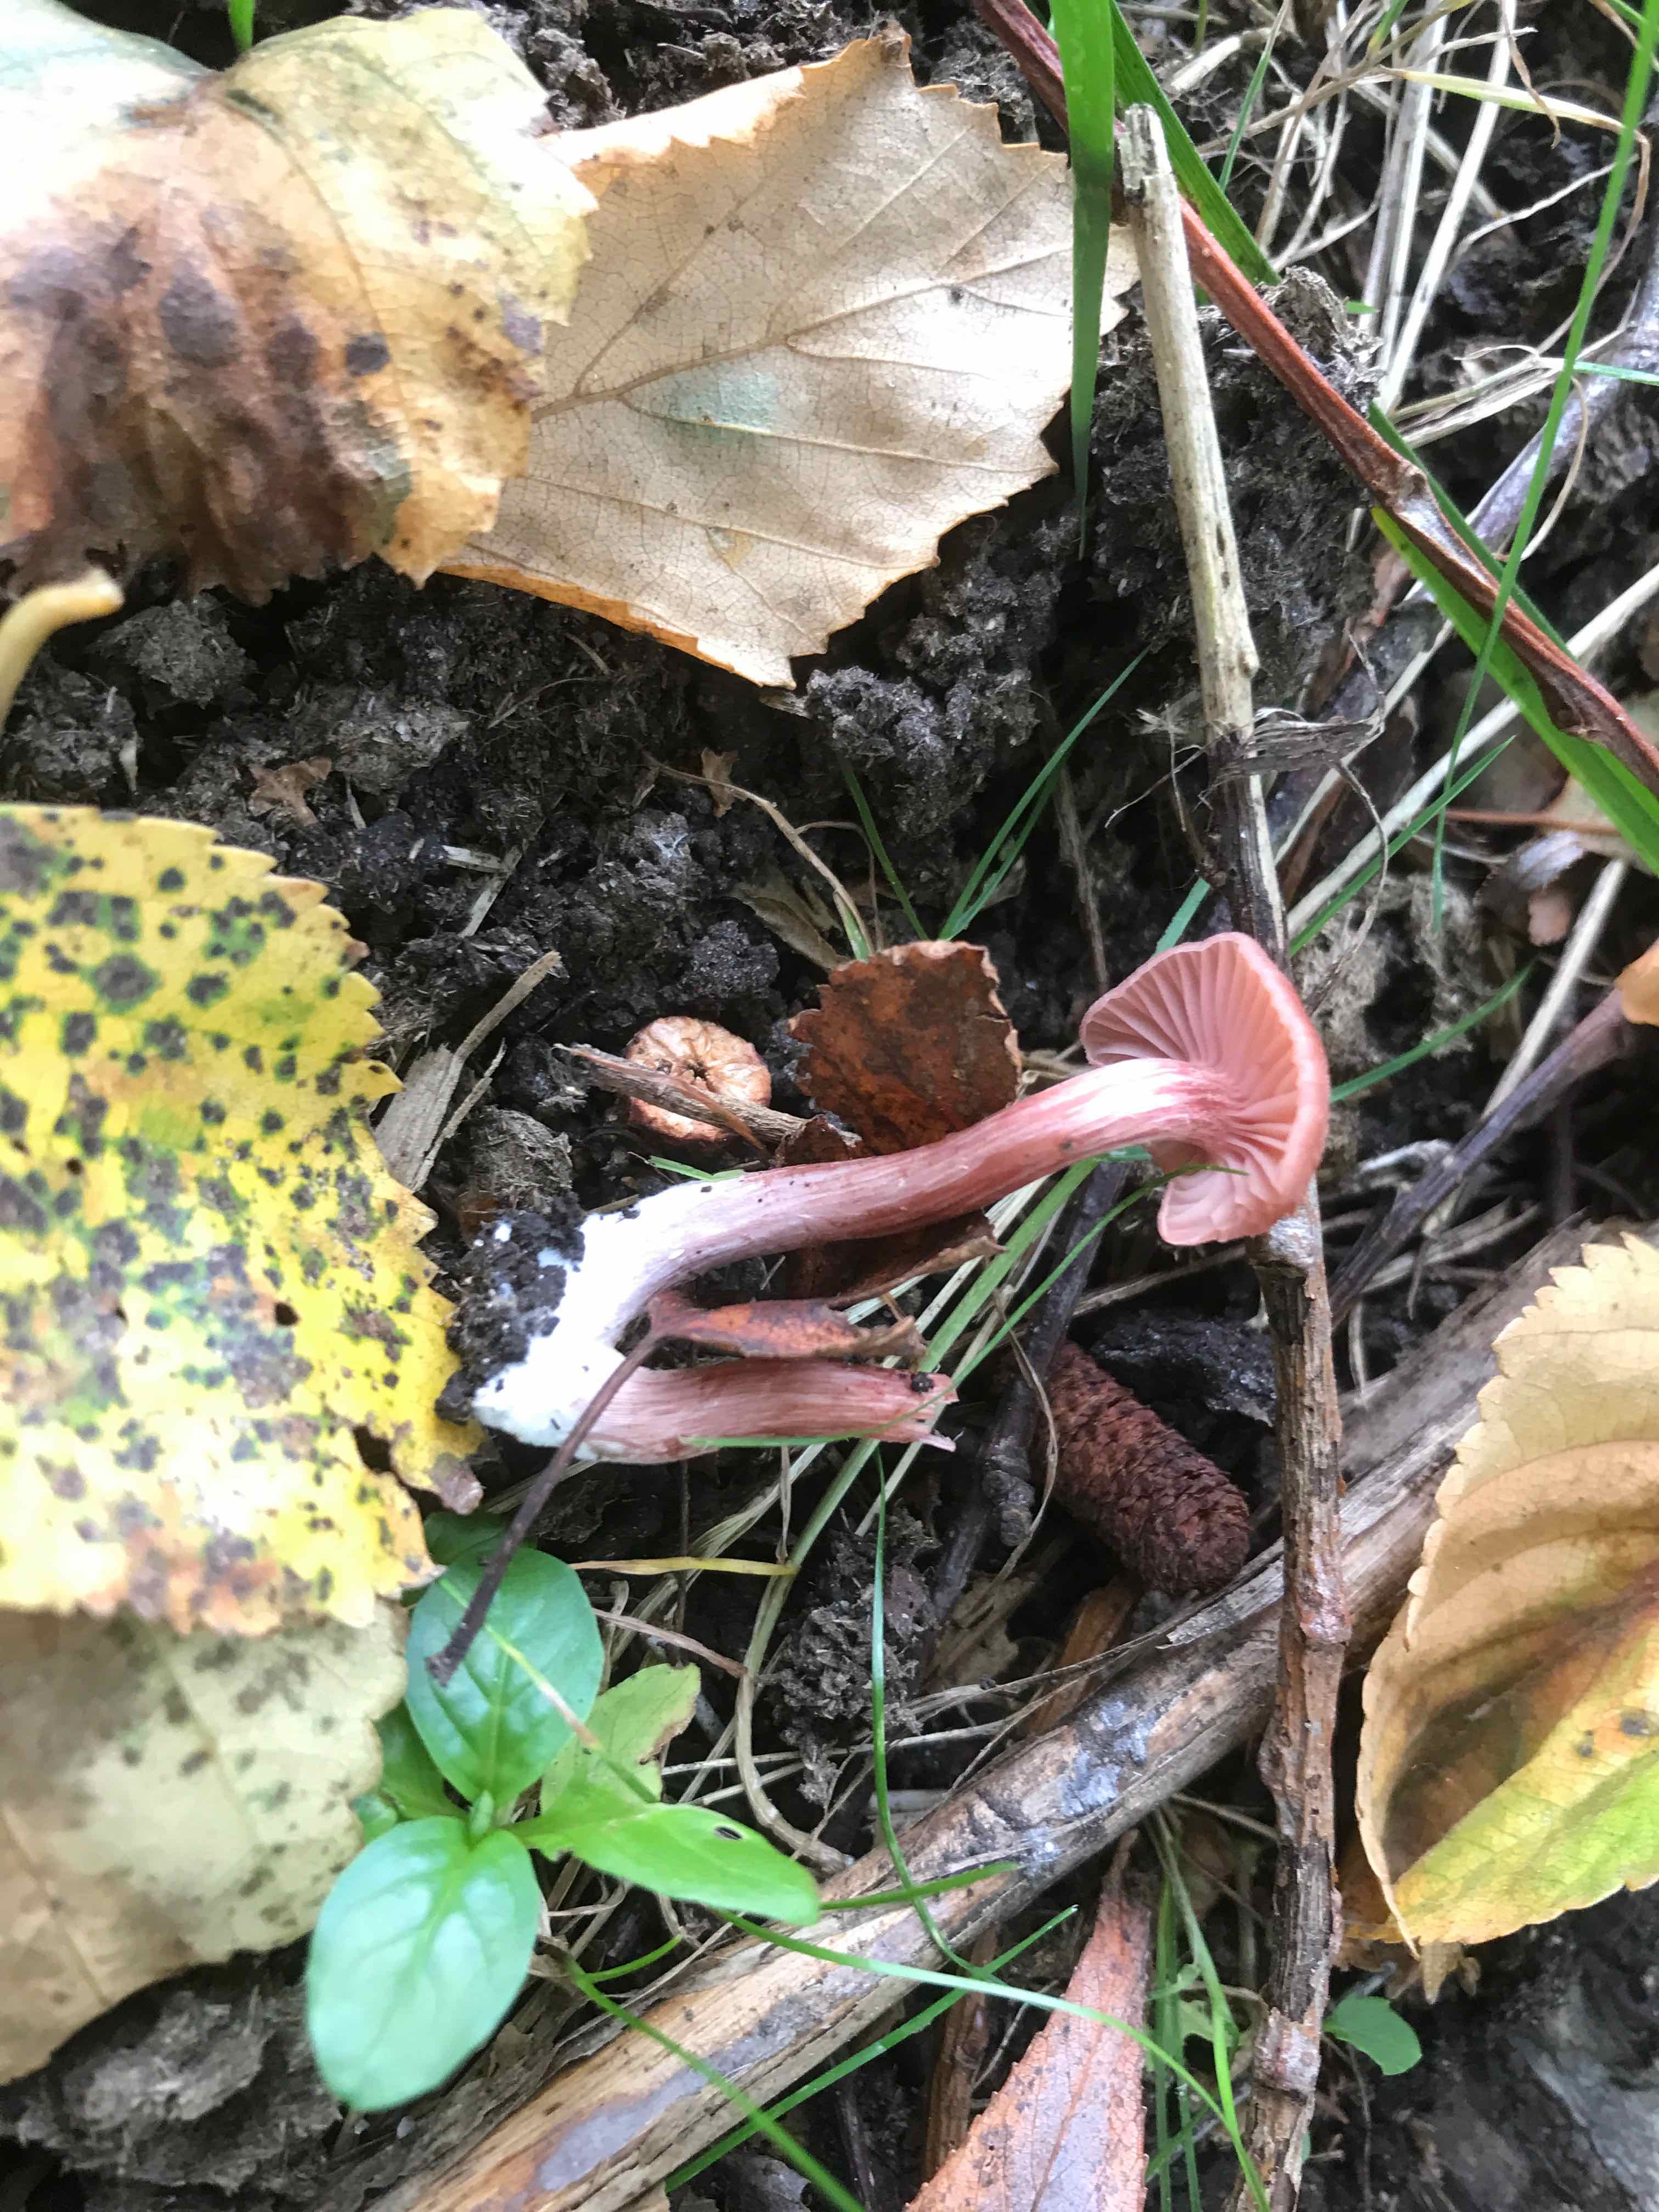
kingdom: Fungi
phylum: Basidiomycota
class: Agaricomycetes
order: Agaricales
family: Hydnangiaceae
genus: Laccaria
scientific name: Laccaria laccata
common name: rød ametysthat
